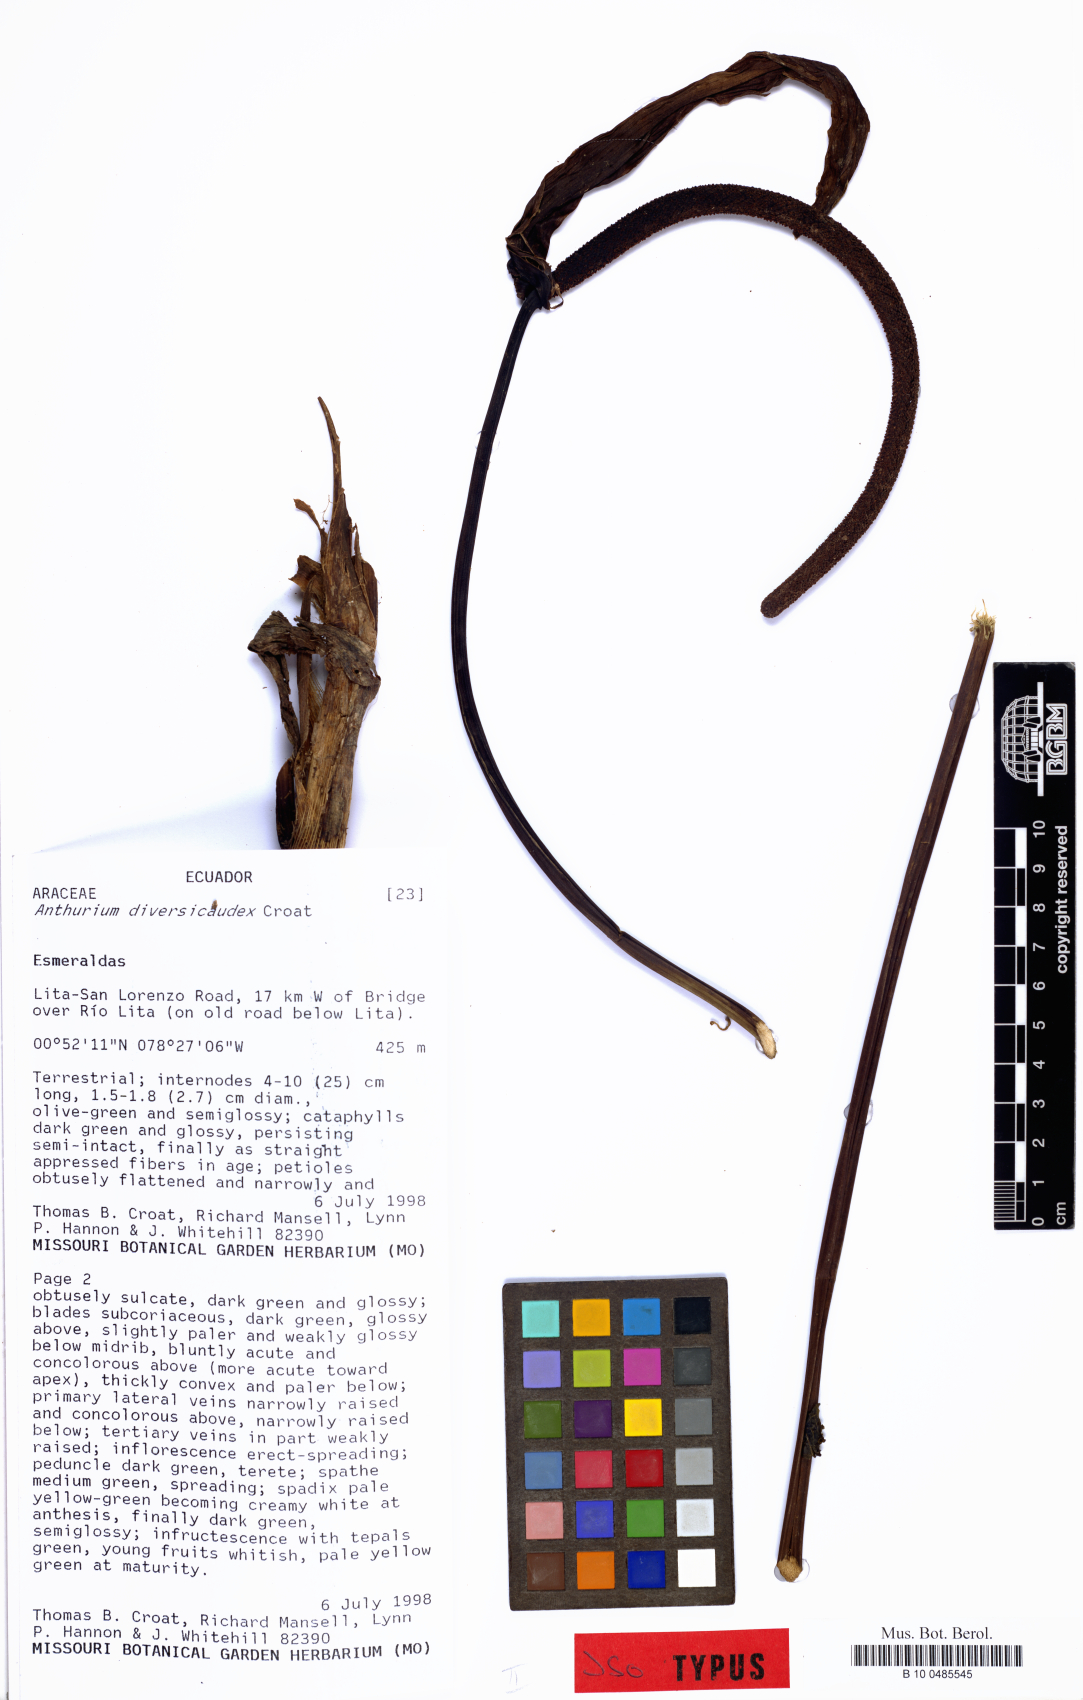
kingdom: Plantae
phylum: Tracheophyta
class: Liliopsida
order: Alismatales
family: Araceae
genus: Anthurium
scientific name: Anthurium diversicaudex
